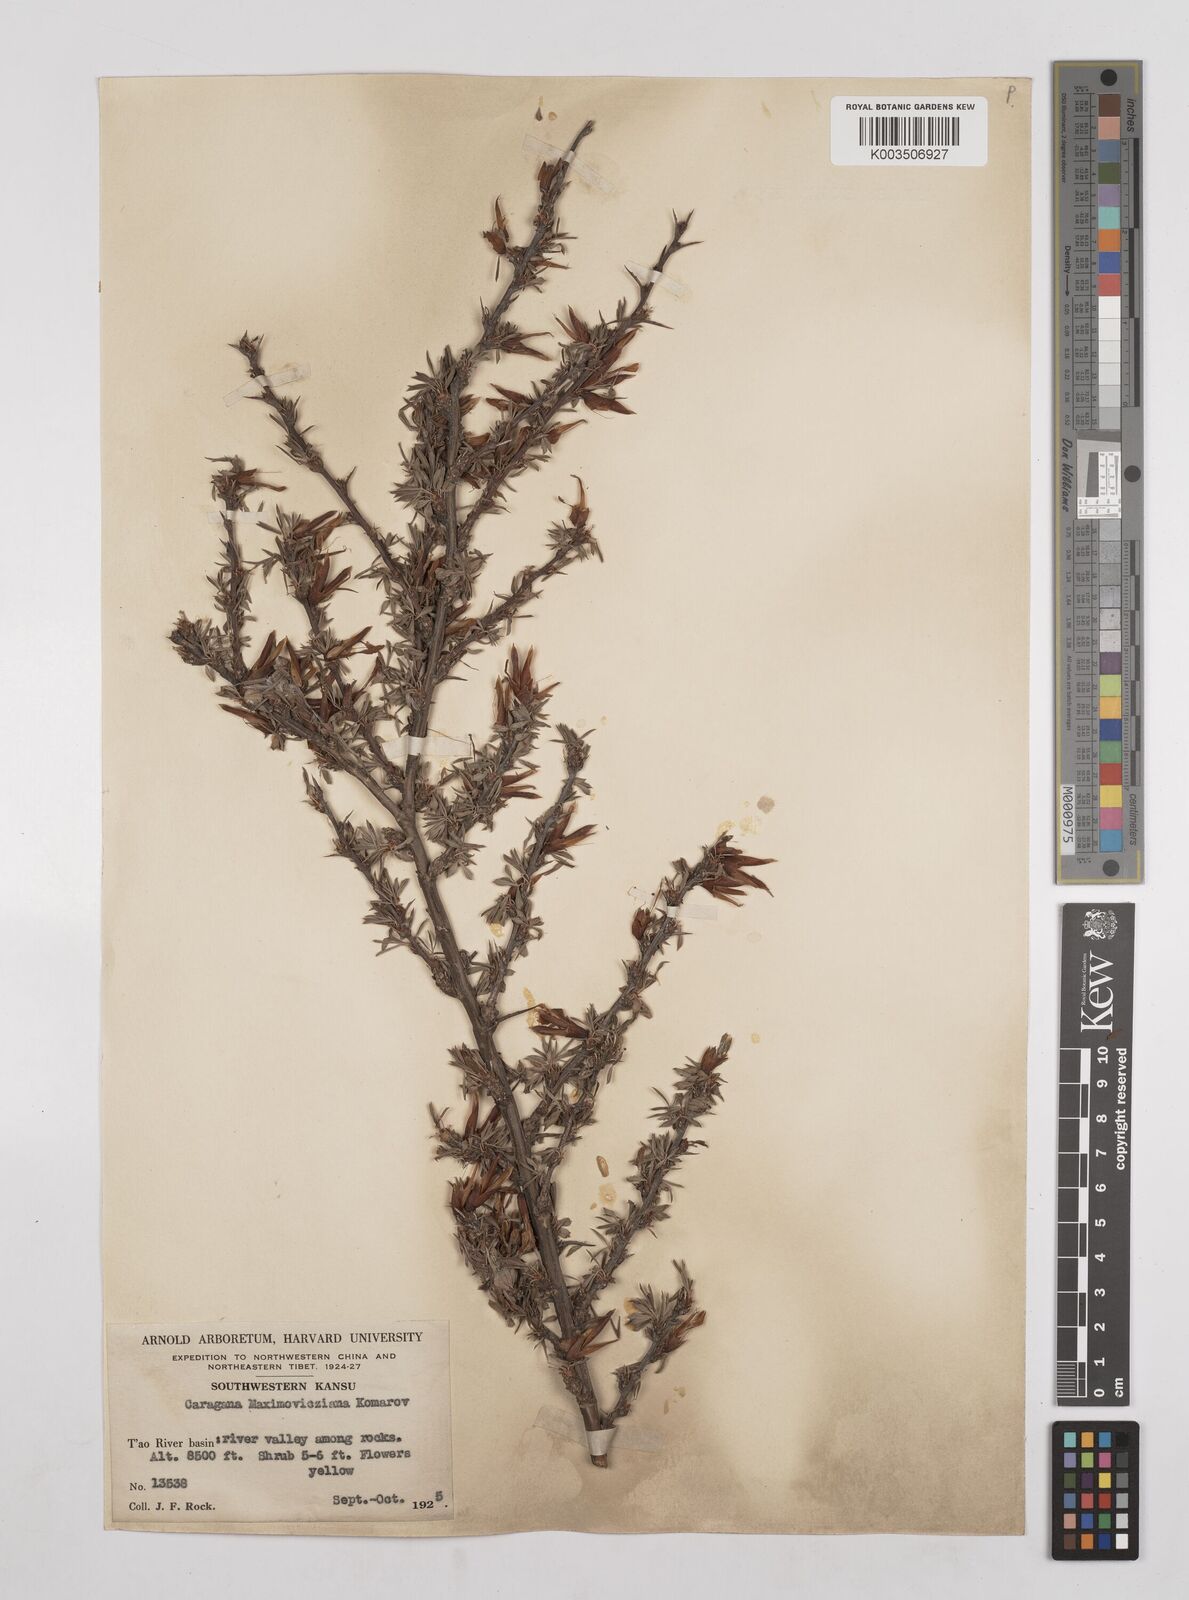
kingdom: Plantae
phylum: Tracheophyta
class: Magnoliopsida
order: Fabales
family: Fabaceae
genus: Caragana
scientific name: Caragana erinacea
